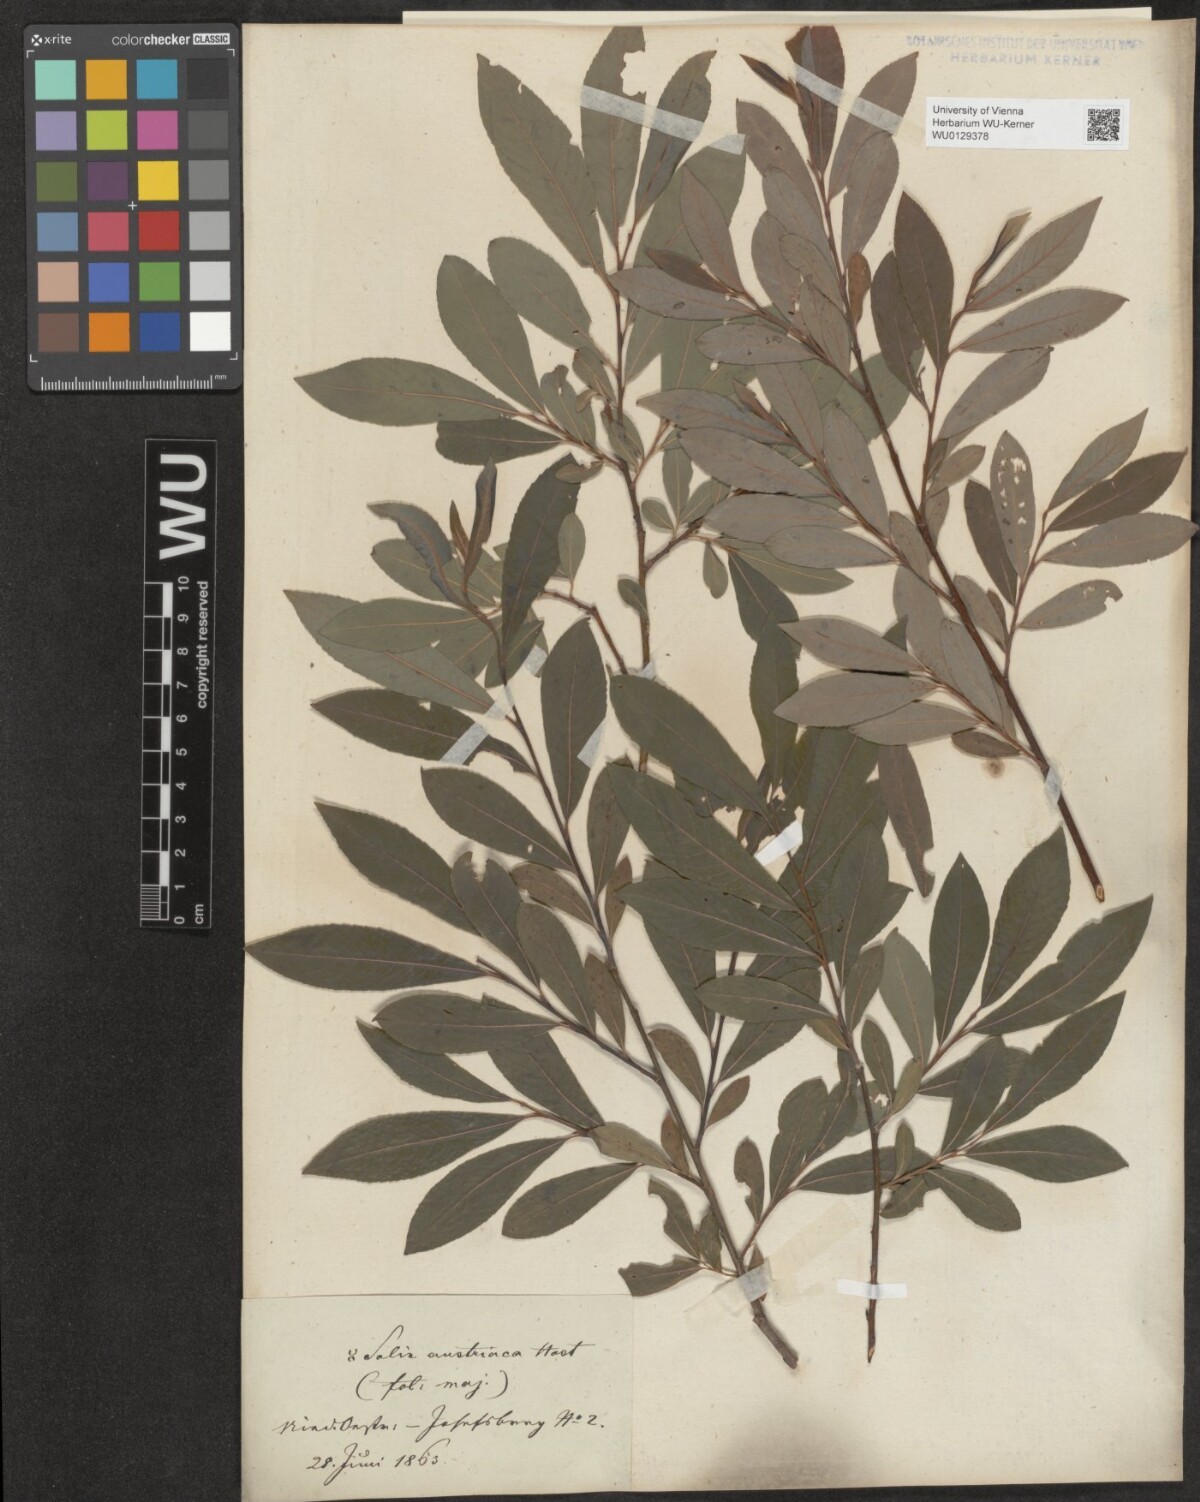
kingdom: Plantae
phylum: Tracheophyta
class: Magnoliopsida
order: Malpighiales
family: Salicaceae
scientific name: Salicaceae
